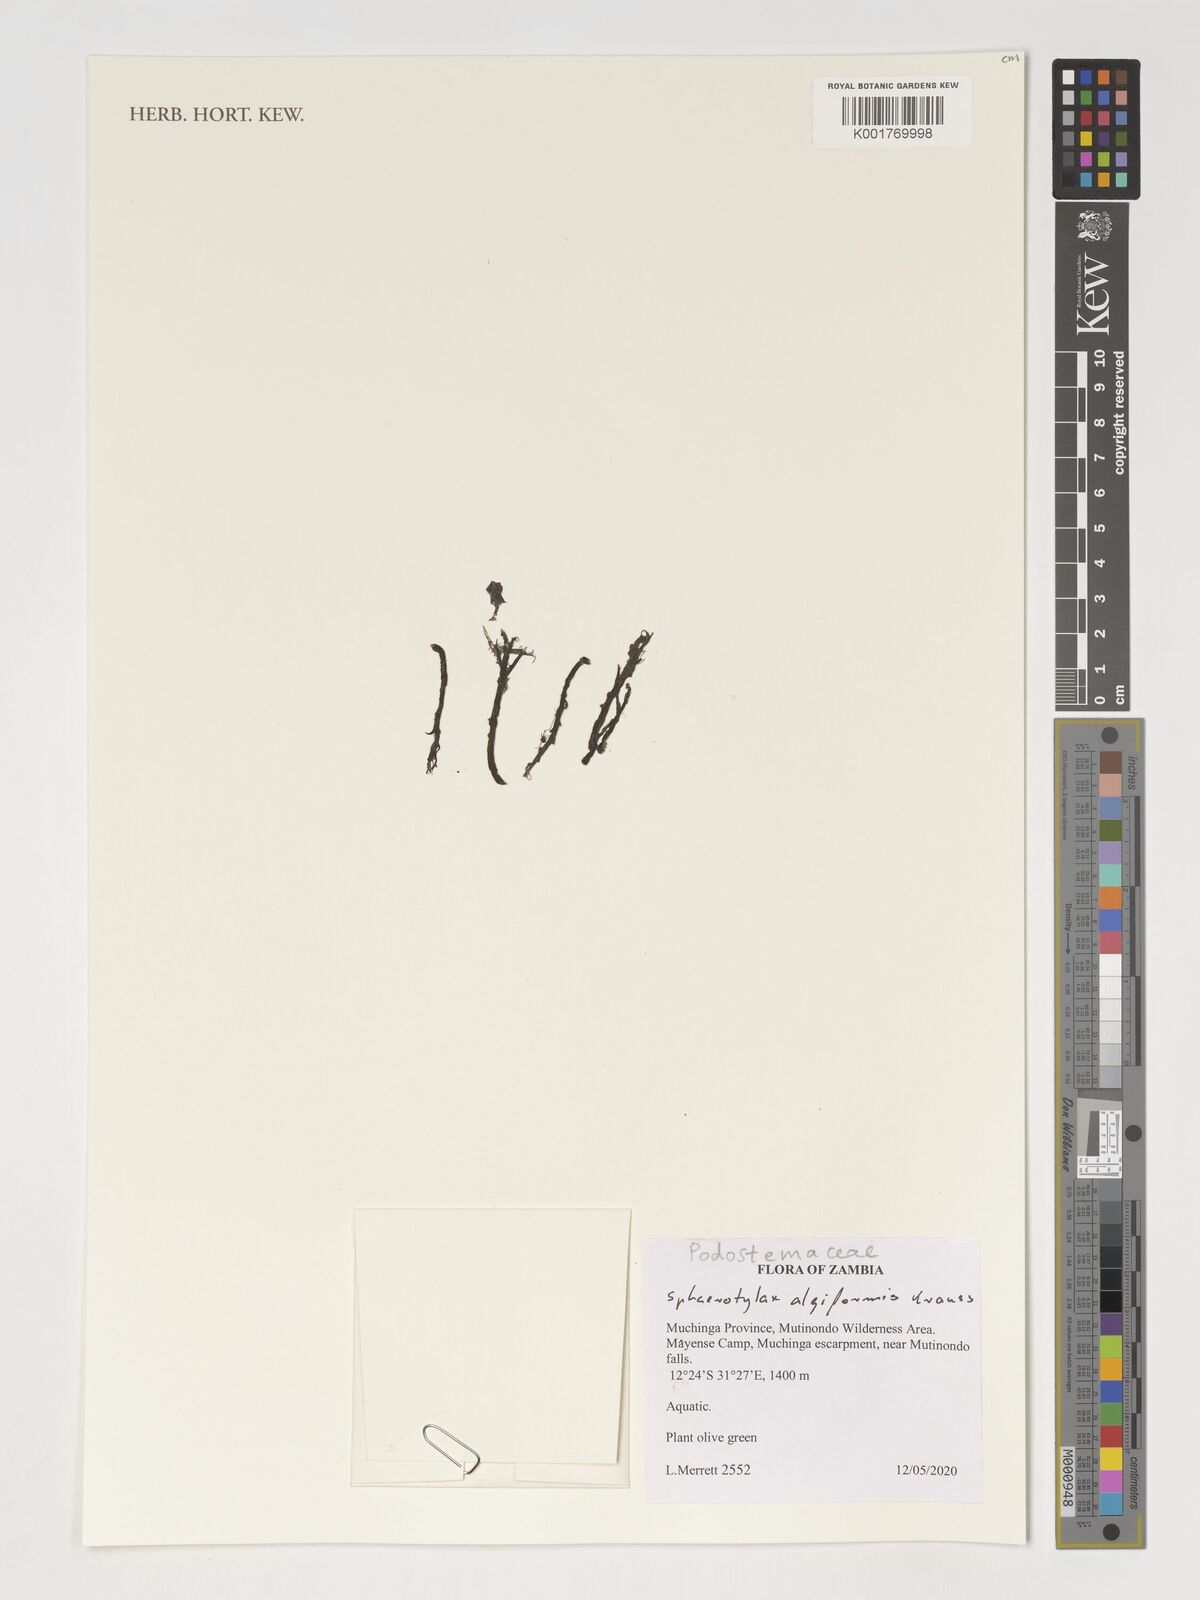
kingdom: Plantae
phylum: Tracheophyta
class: Magnoliopsida
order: Malpighiales
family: Podostemaceae
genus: Sphaerothylax
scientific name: Sphaerothylax algiformis
